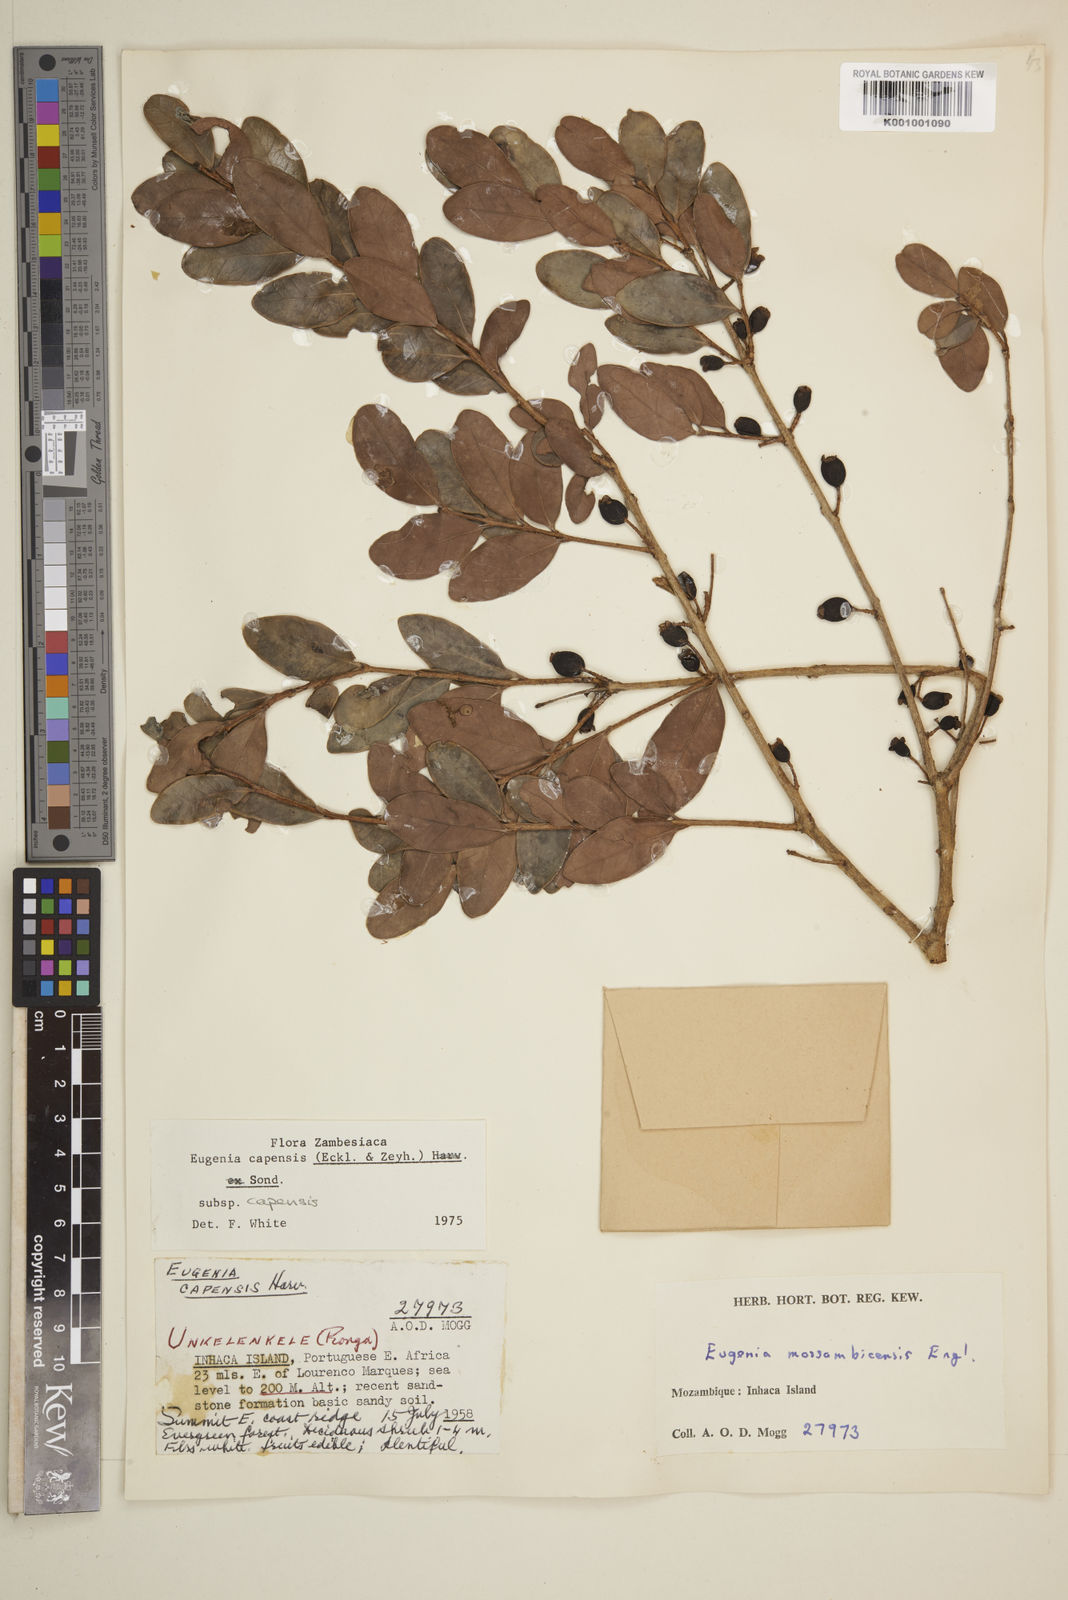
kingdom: Plantae
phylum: Tracheophyta
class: Magnoliopsida
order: Myrtales
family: Myrtaceae
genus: Eugenia
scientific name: Eugenia capensis
